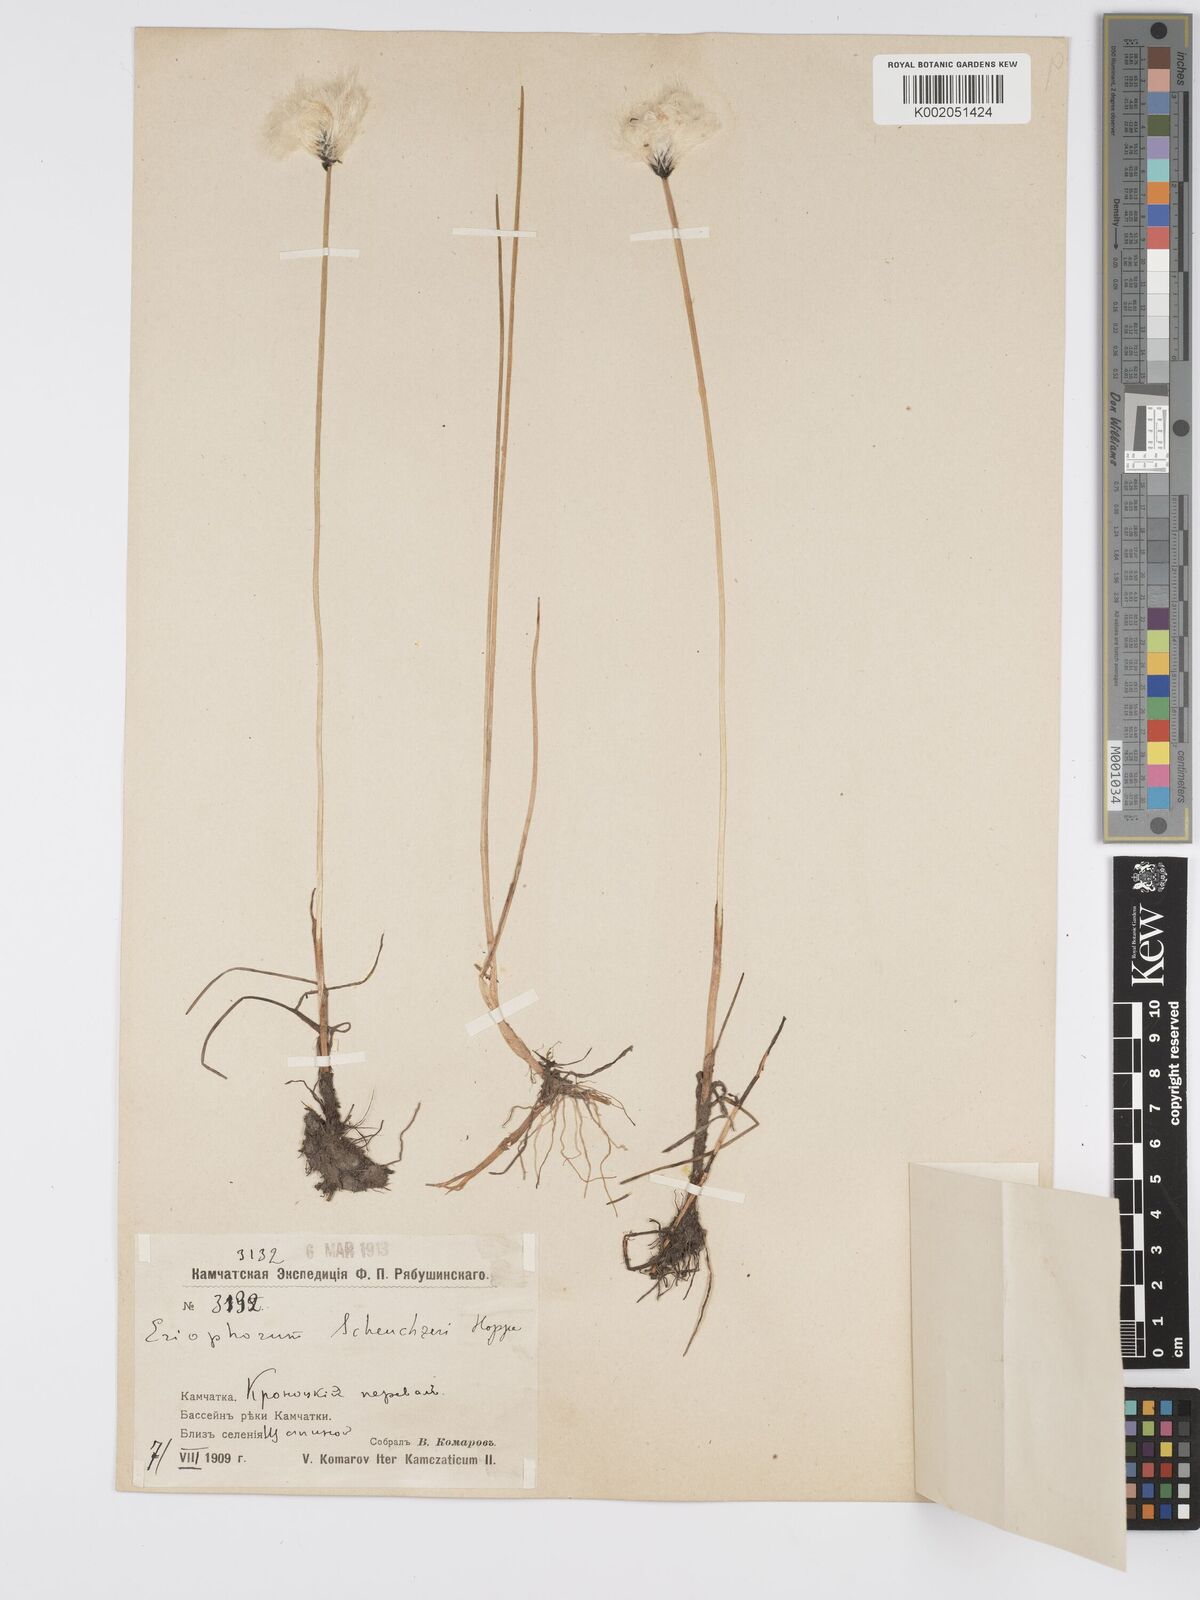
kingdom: Plantae
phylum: Tracheophyta
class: Liliopsida
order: Poales
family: Cyperaceae
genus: Eriophorum
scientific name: Eriophorum scheuchzeri
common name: Scheuchzer's cottongrass
